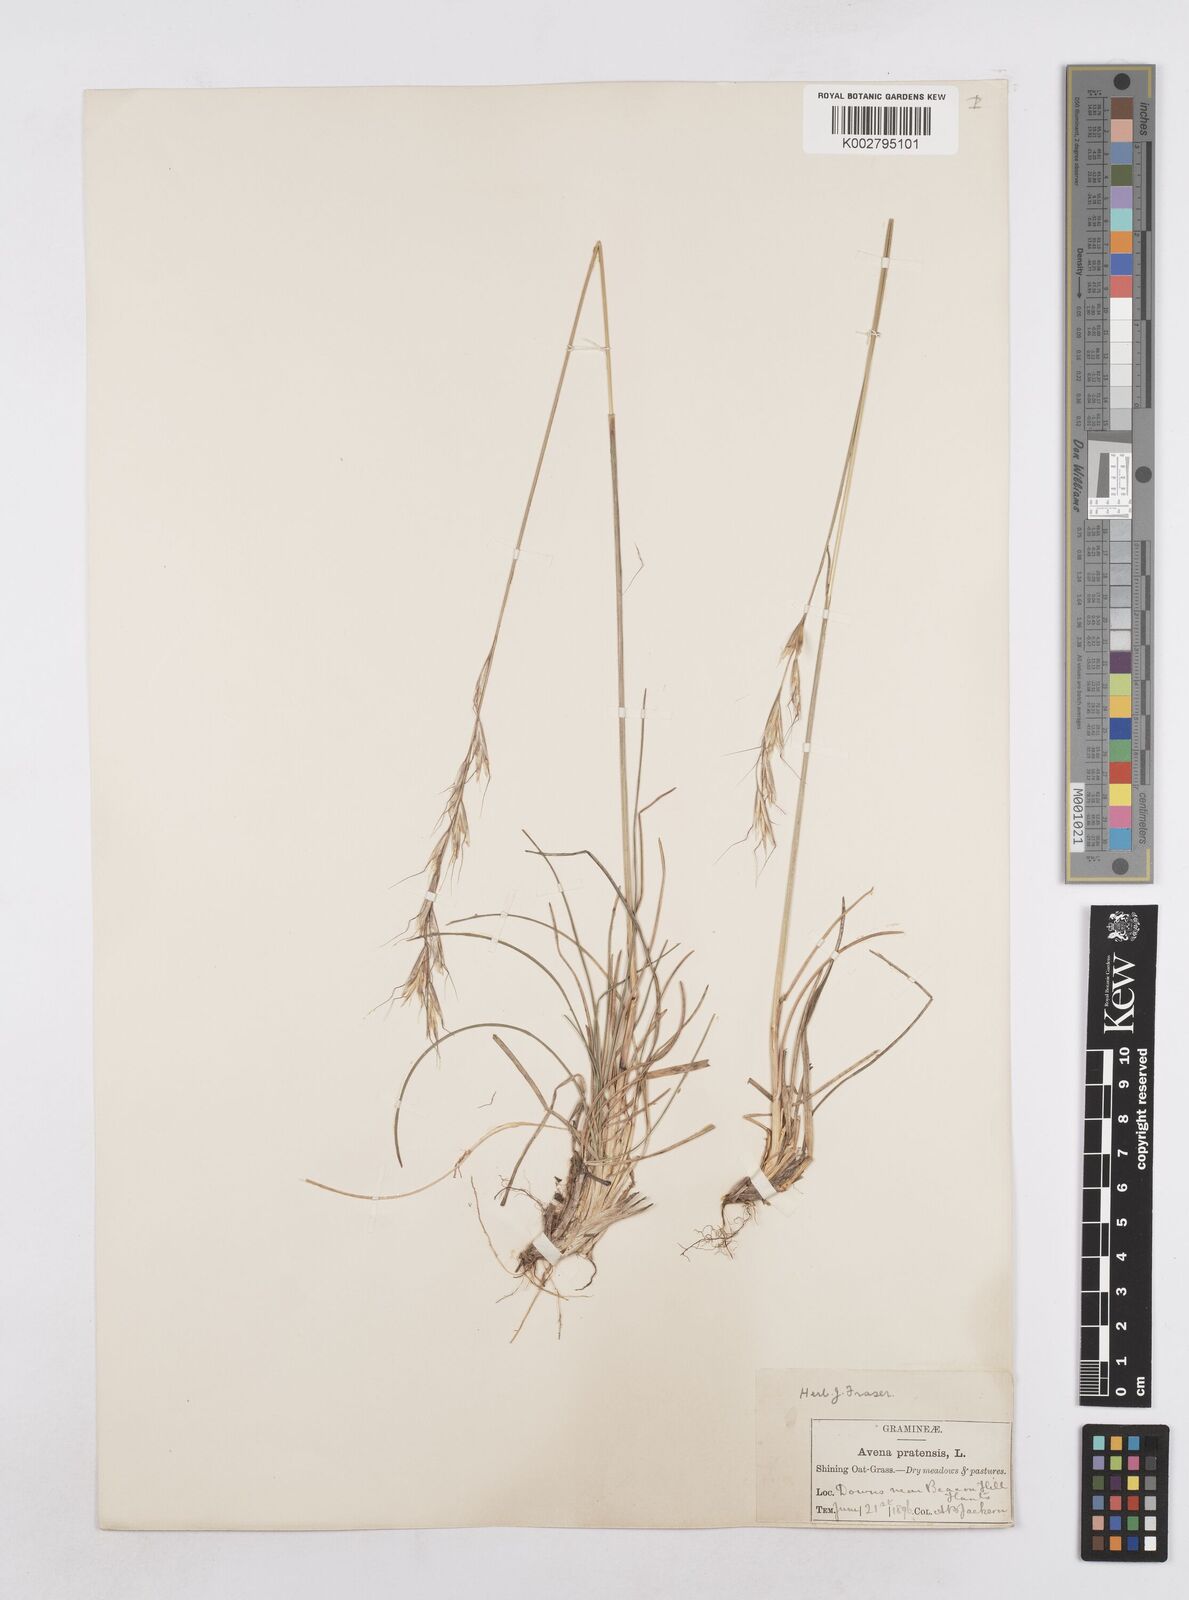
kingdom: Plantae
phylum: Tracheophyta
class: Liliopsida
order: Poales
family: Poaceae
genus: Helictochloa
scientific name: Helictochloa pratensis
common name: Meadow oat grass
